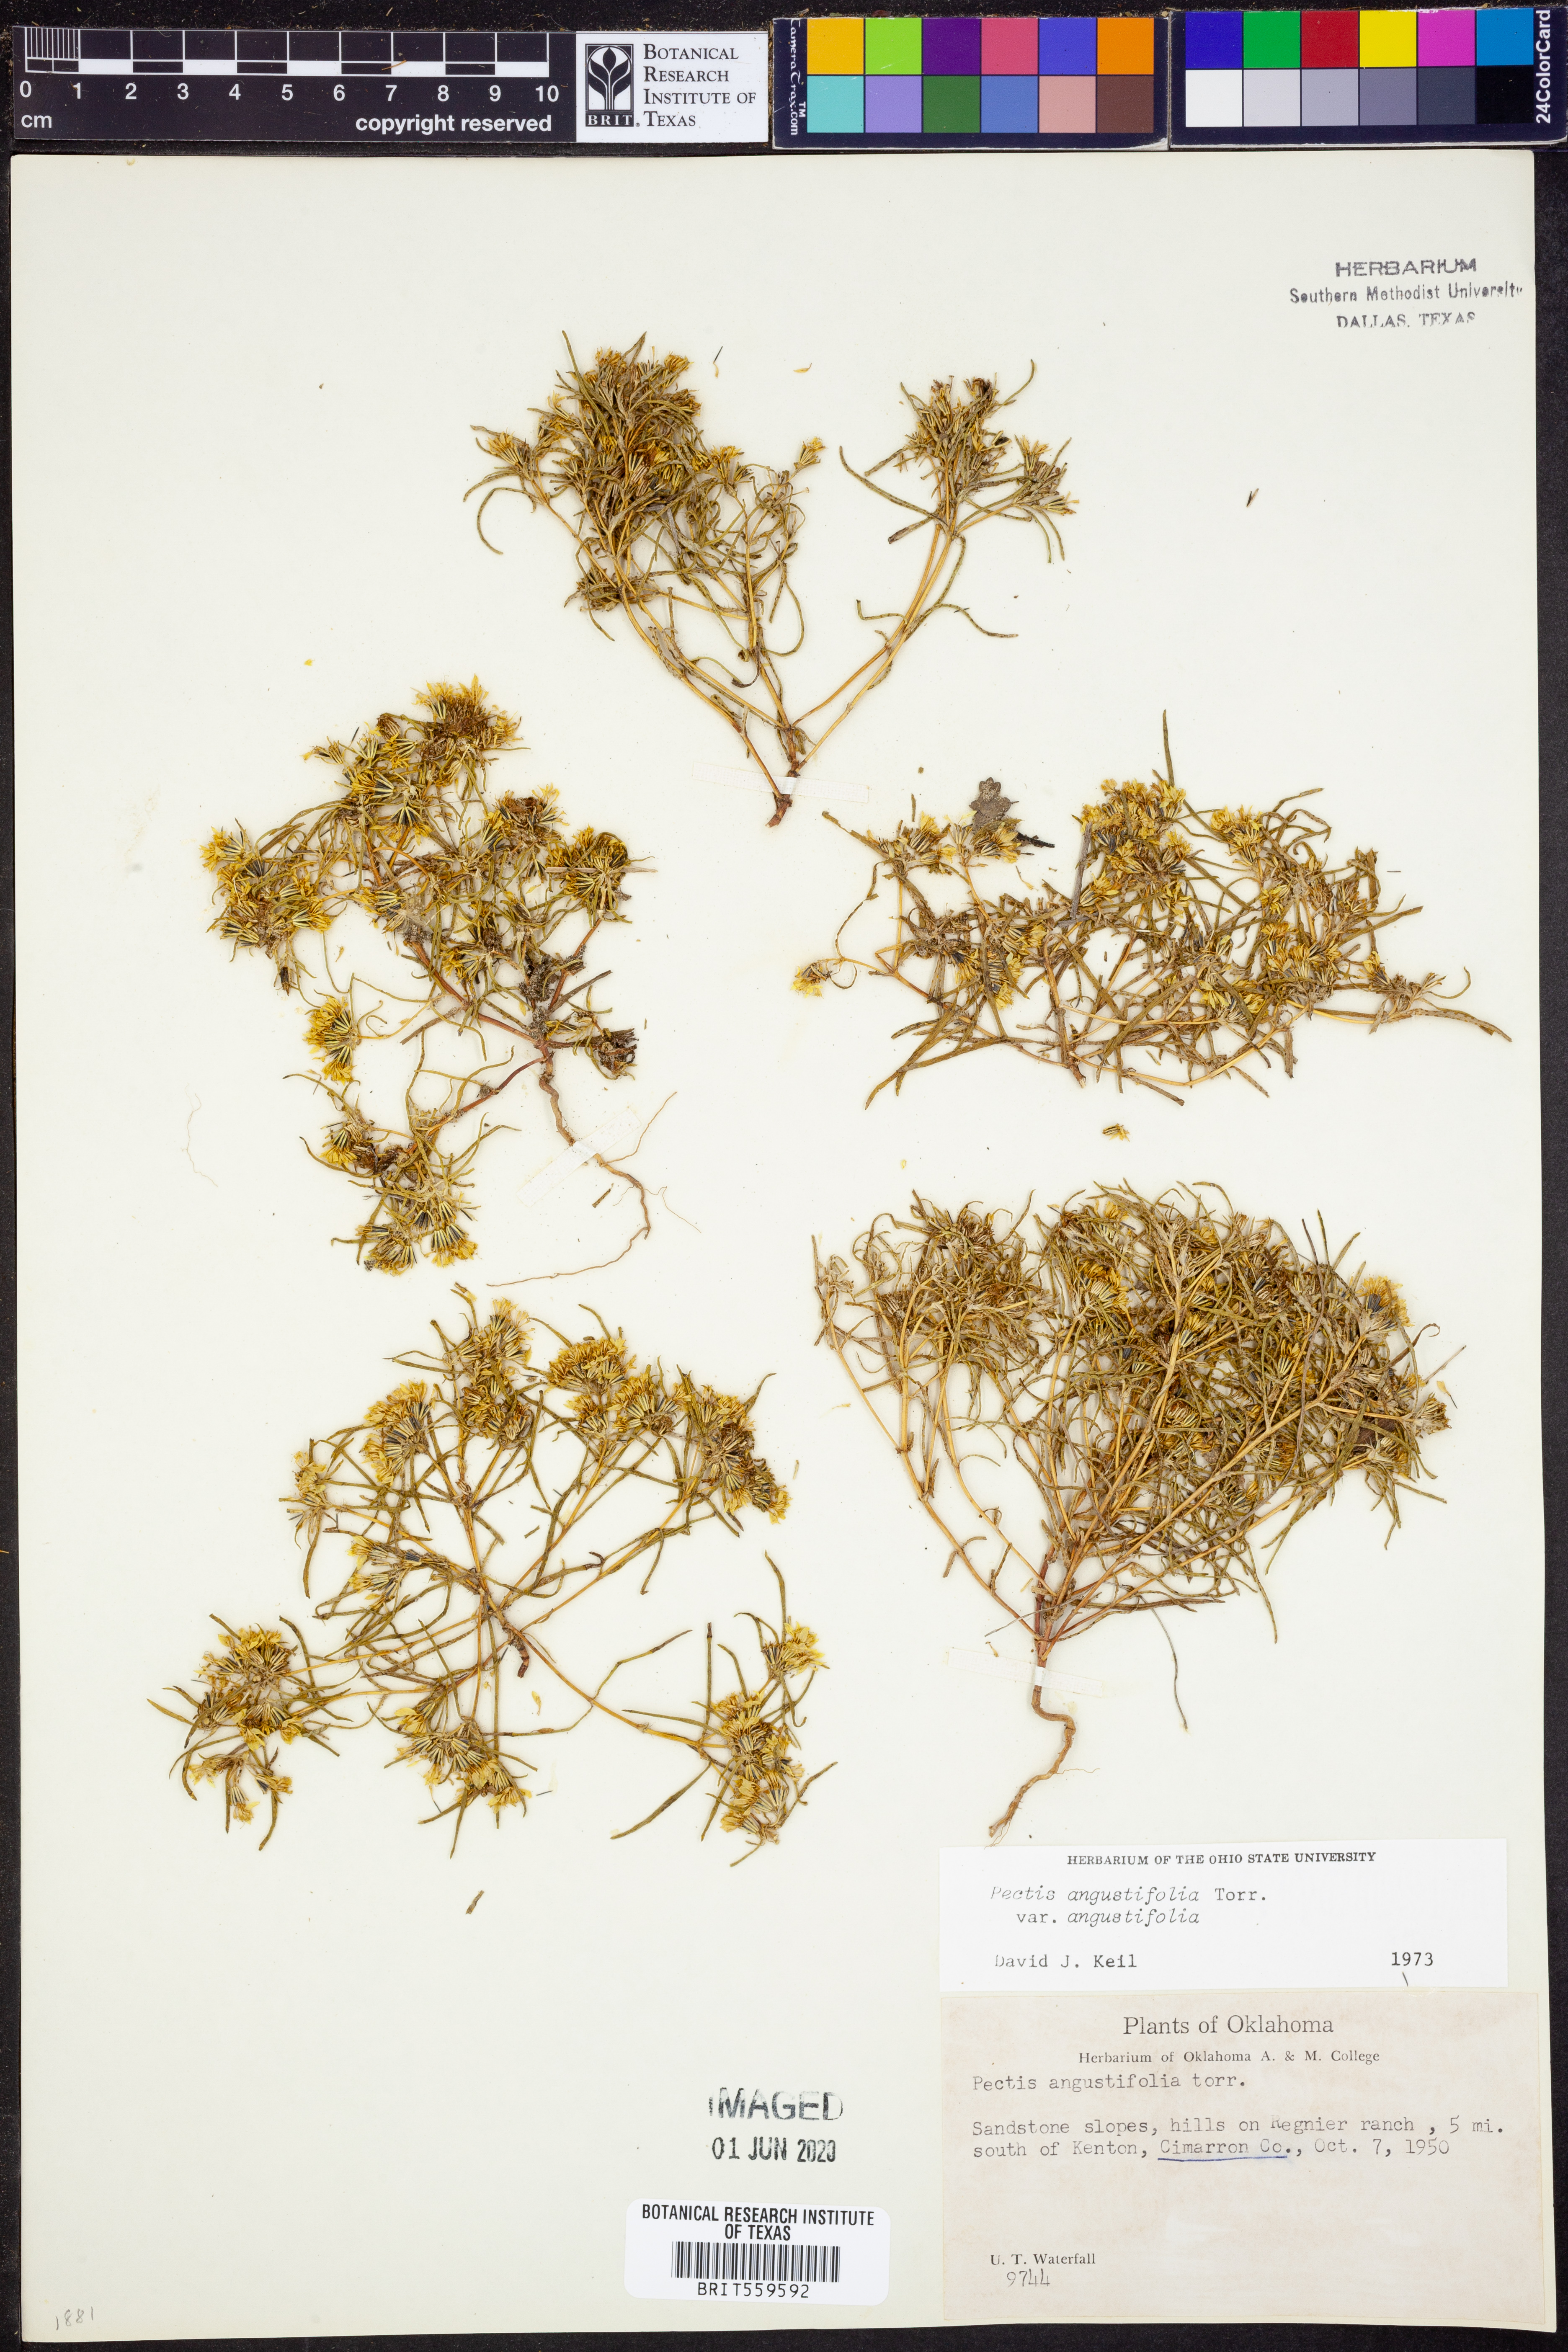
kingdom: Plantae
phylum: Tracheophyta
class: Magnoliopsida
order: Asterales
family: Asteraceae
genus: Pectis
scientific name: Pectis angustifolia
